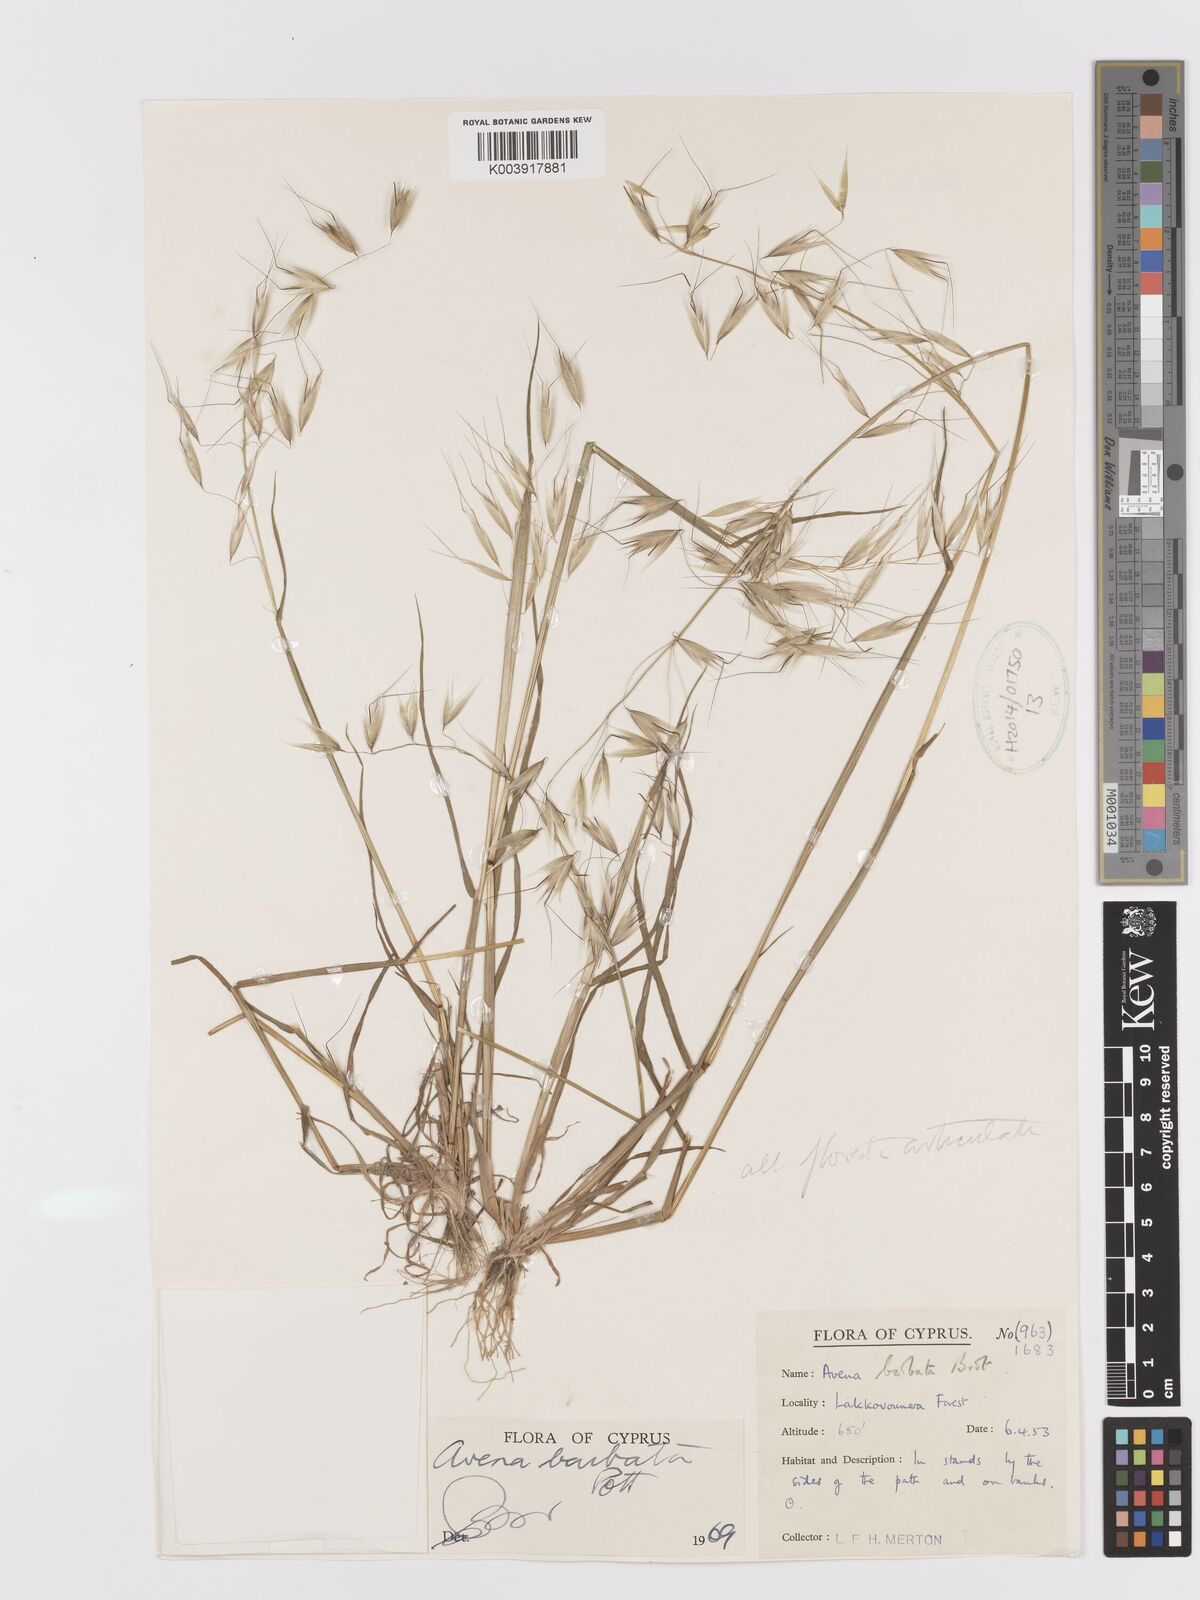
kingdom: Plantae
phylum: Tracheophyta
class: Liliopsida
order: Poales
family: Poaceae
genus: Avena
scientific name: Avena
